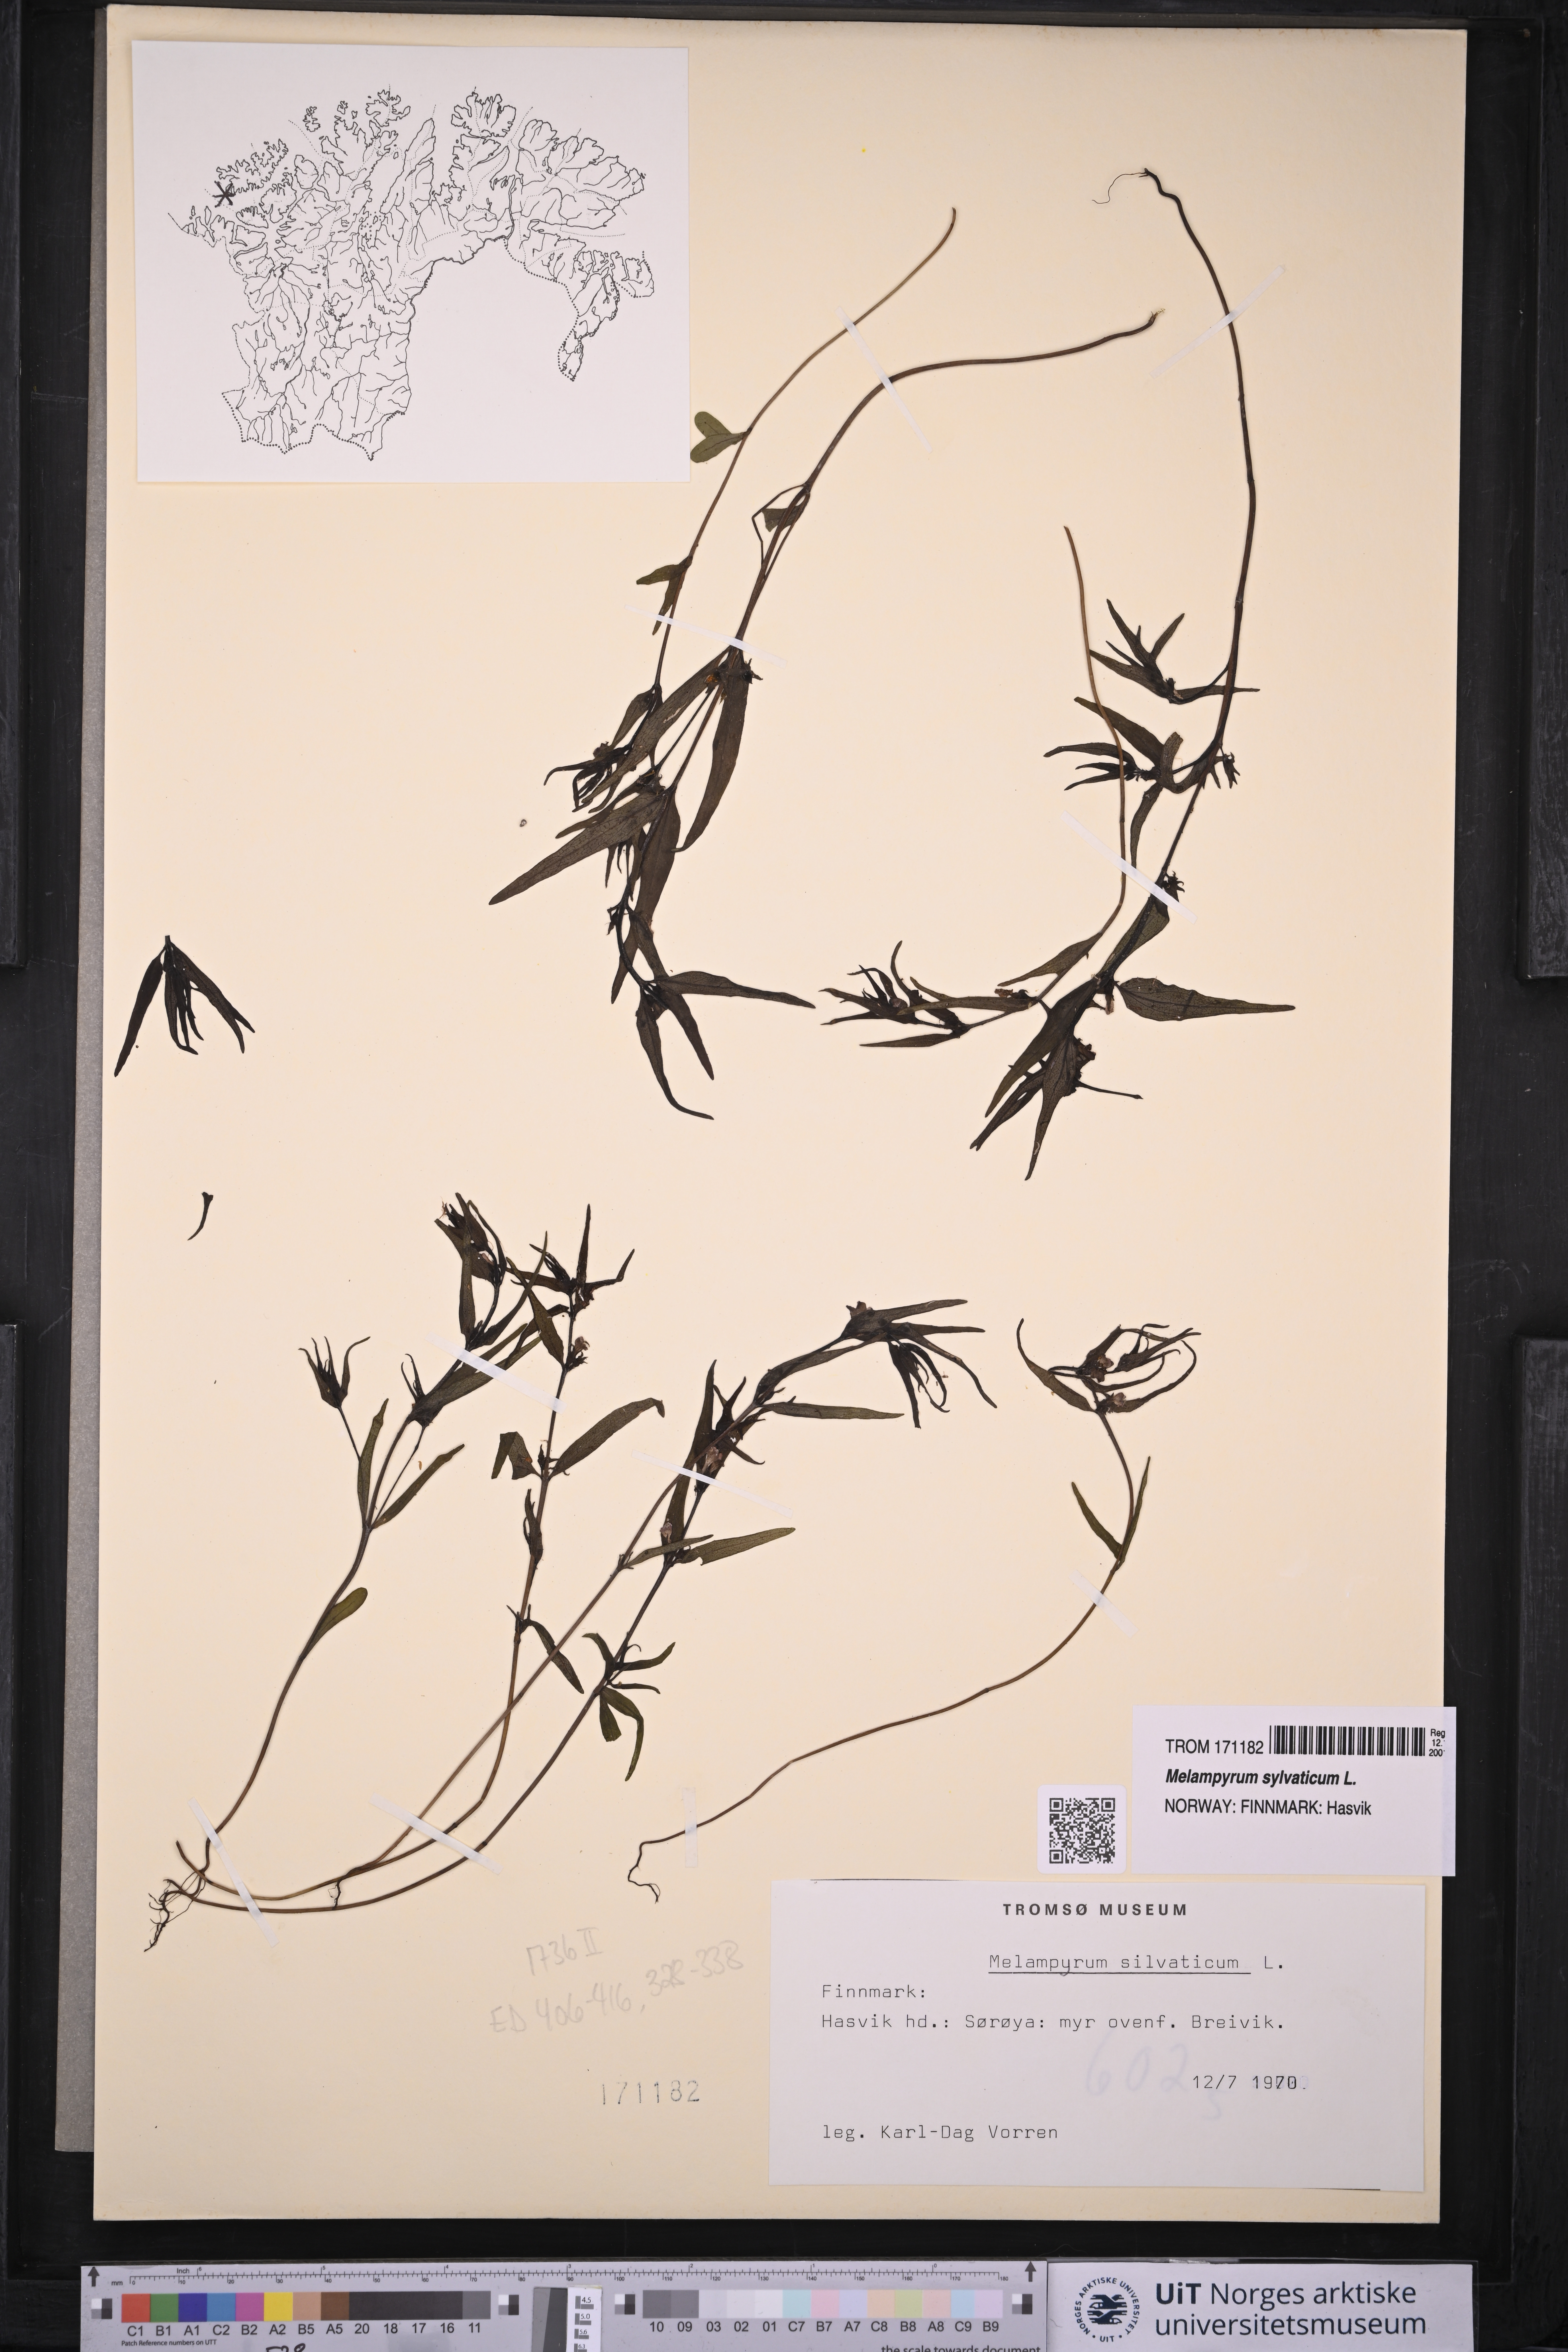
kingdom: Plantae
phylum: Tracheophyta
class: Magnoliopsida
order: Lamiales
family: Orobanchaceae
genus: Melampyrum
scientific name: Melampyrum sylvaticum
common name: Small cow-wheat
